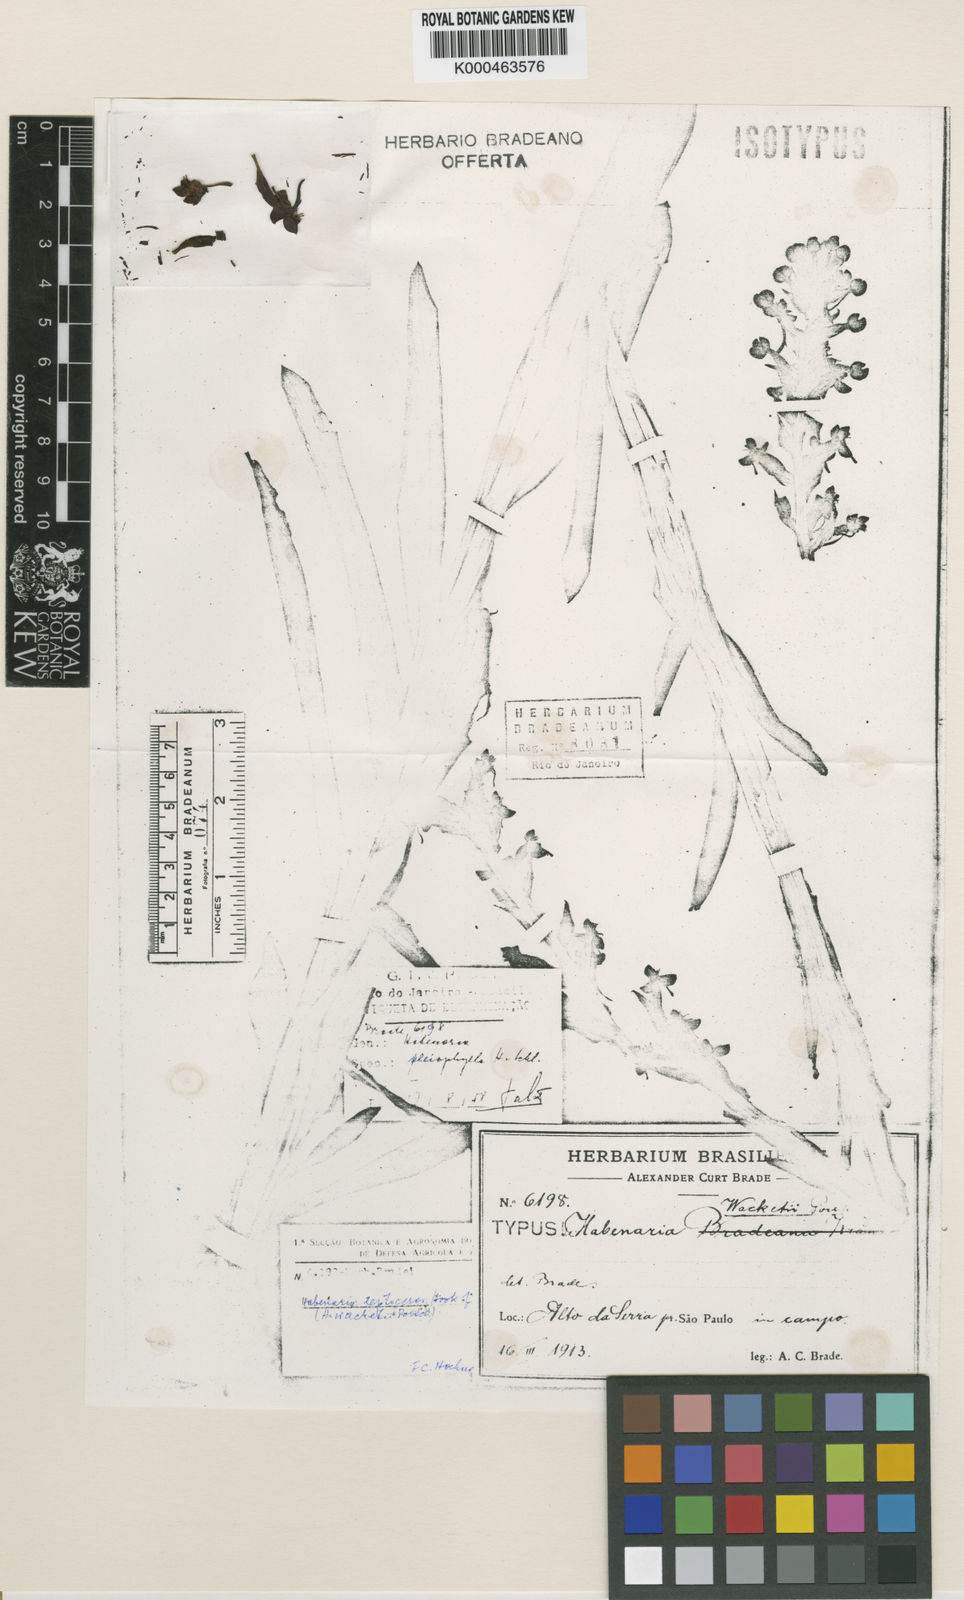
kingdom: Plantae
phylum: Tracheophyta
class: Liliopsida
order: Asparagales
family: Orchidaceae
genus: Habenaria
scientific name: Habenaria josephensis
